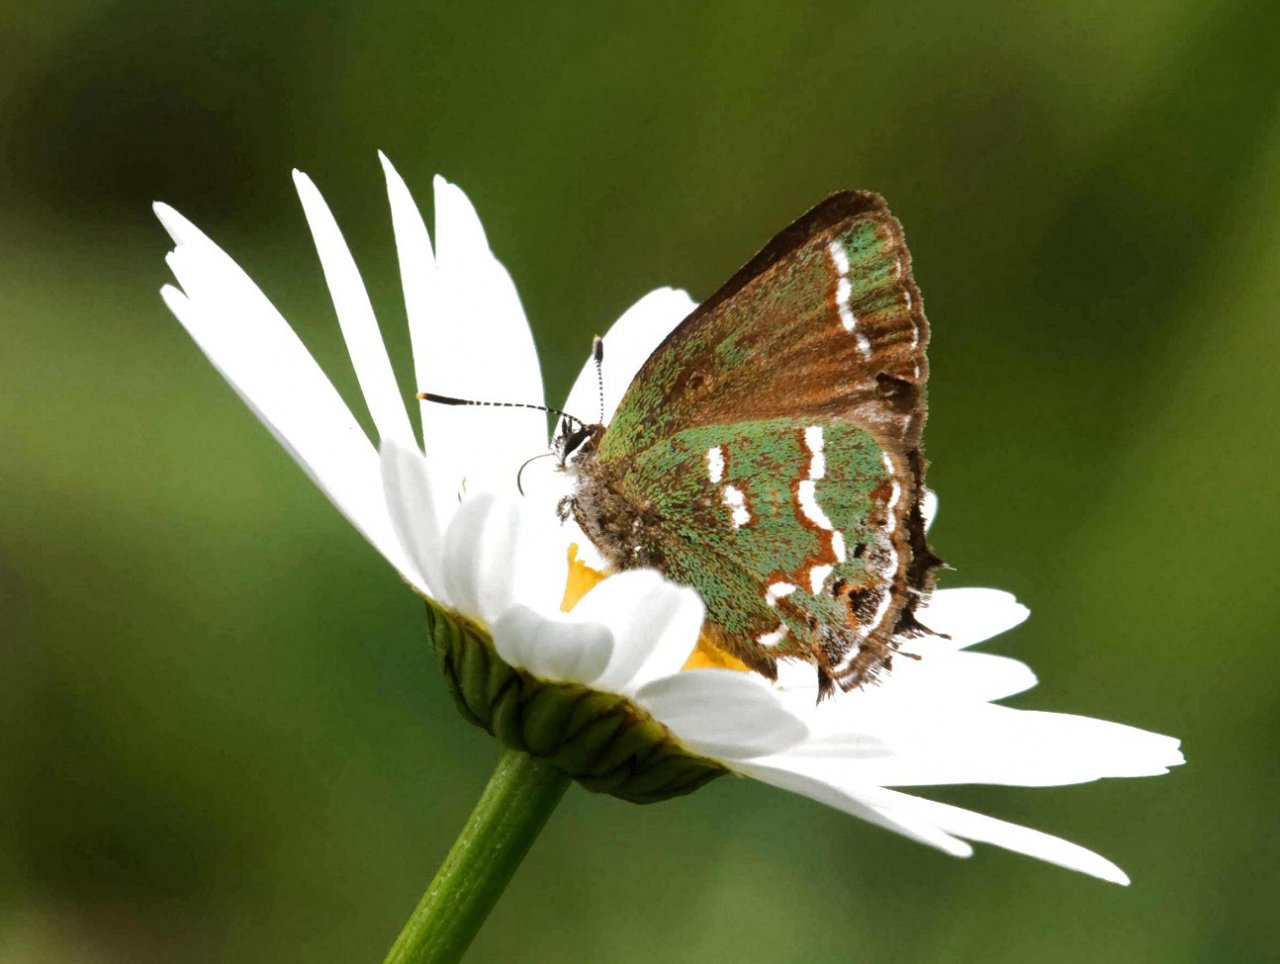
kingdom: Animalia
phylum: Arthropoda
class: Insecta
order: Lepidoptera
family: Lycaenidae
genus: Mitoura
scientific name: Mitoura gryneus
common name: Juniper Hairstreak
